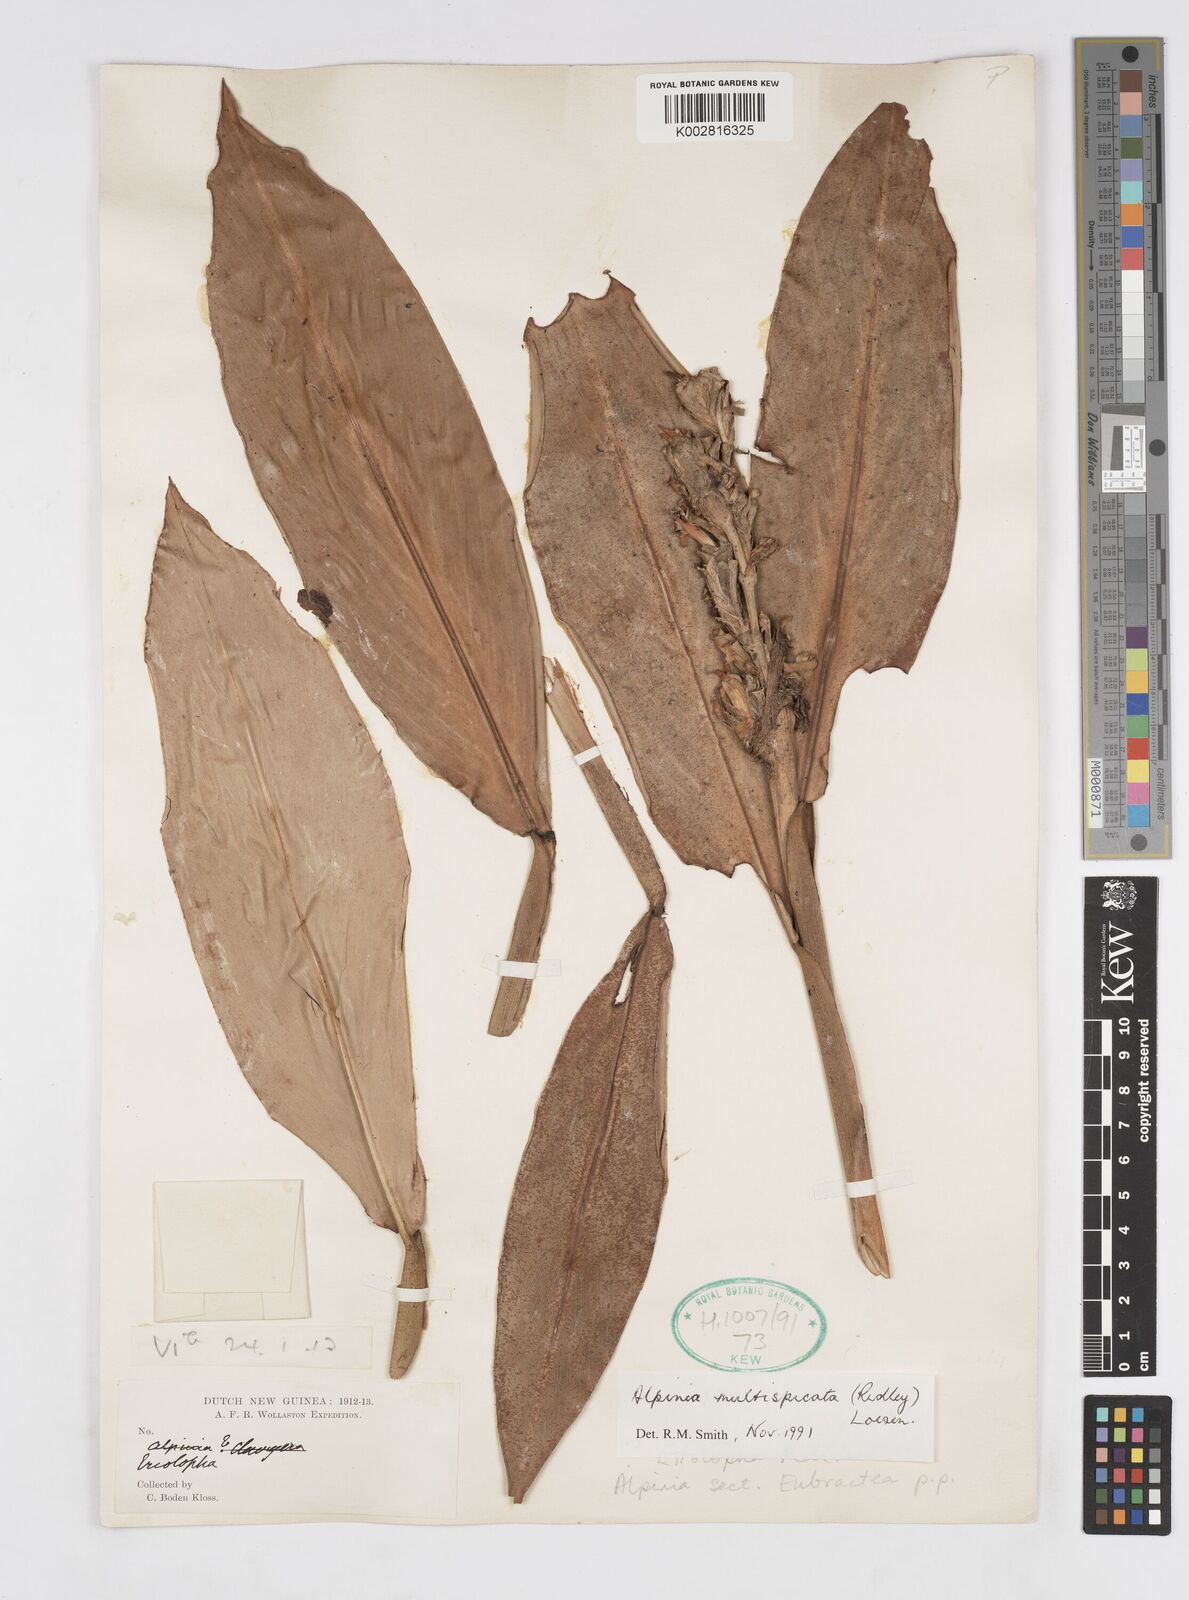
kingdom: Plantae
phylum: Tracheophyta
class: Liliopsida
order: Zingiberales
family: Zingiberaceae
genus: Alpinia
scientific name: Alpinia multispica
